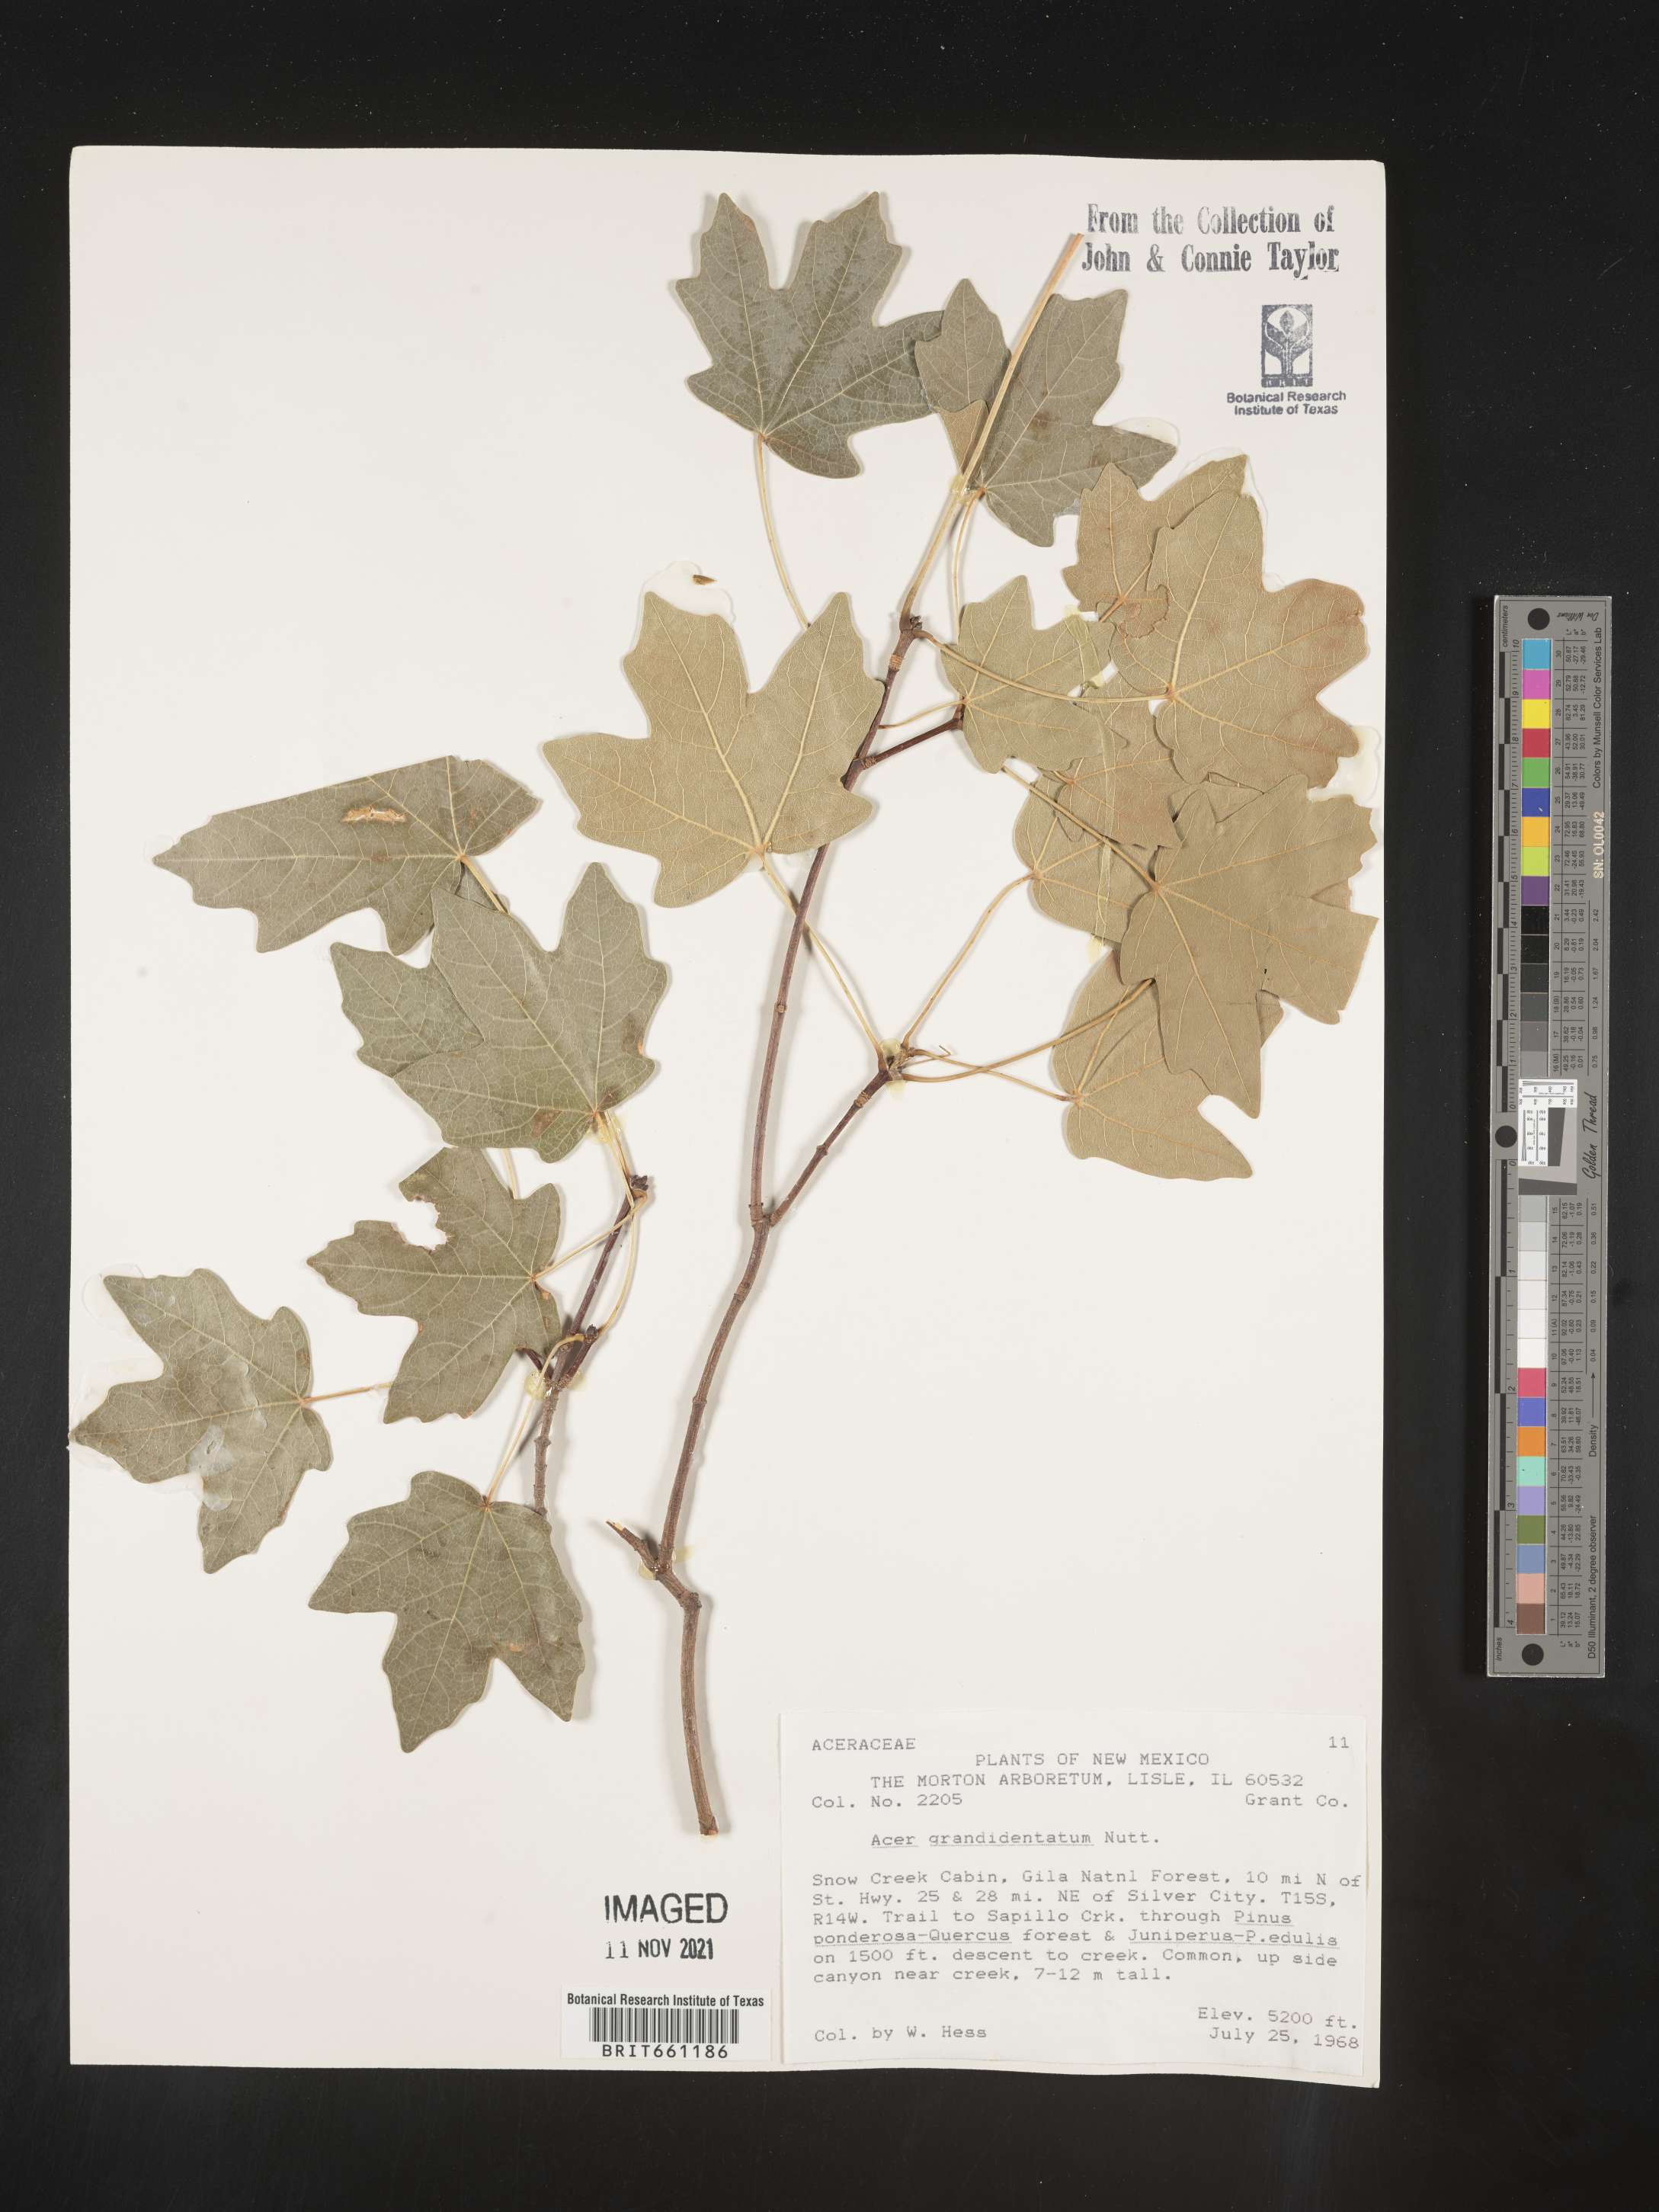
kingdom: Plantae
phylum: Tracheophyta
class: Magnoliopsida
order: Sapindales
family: Sapindaceae
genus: Acer
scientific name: Acer grandidentatum
